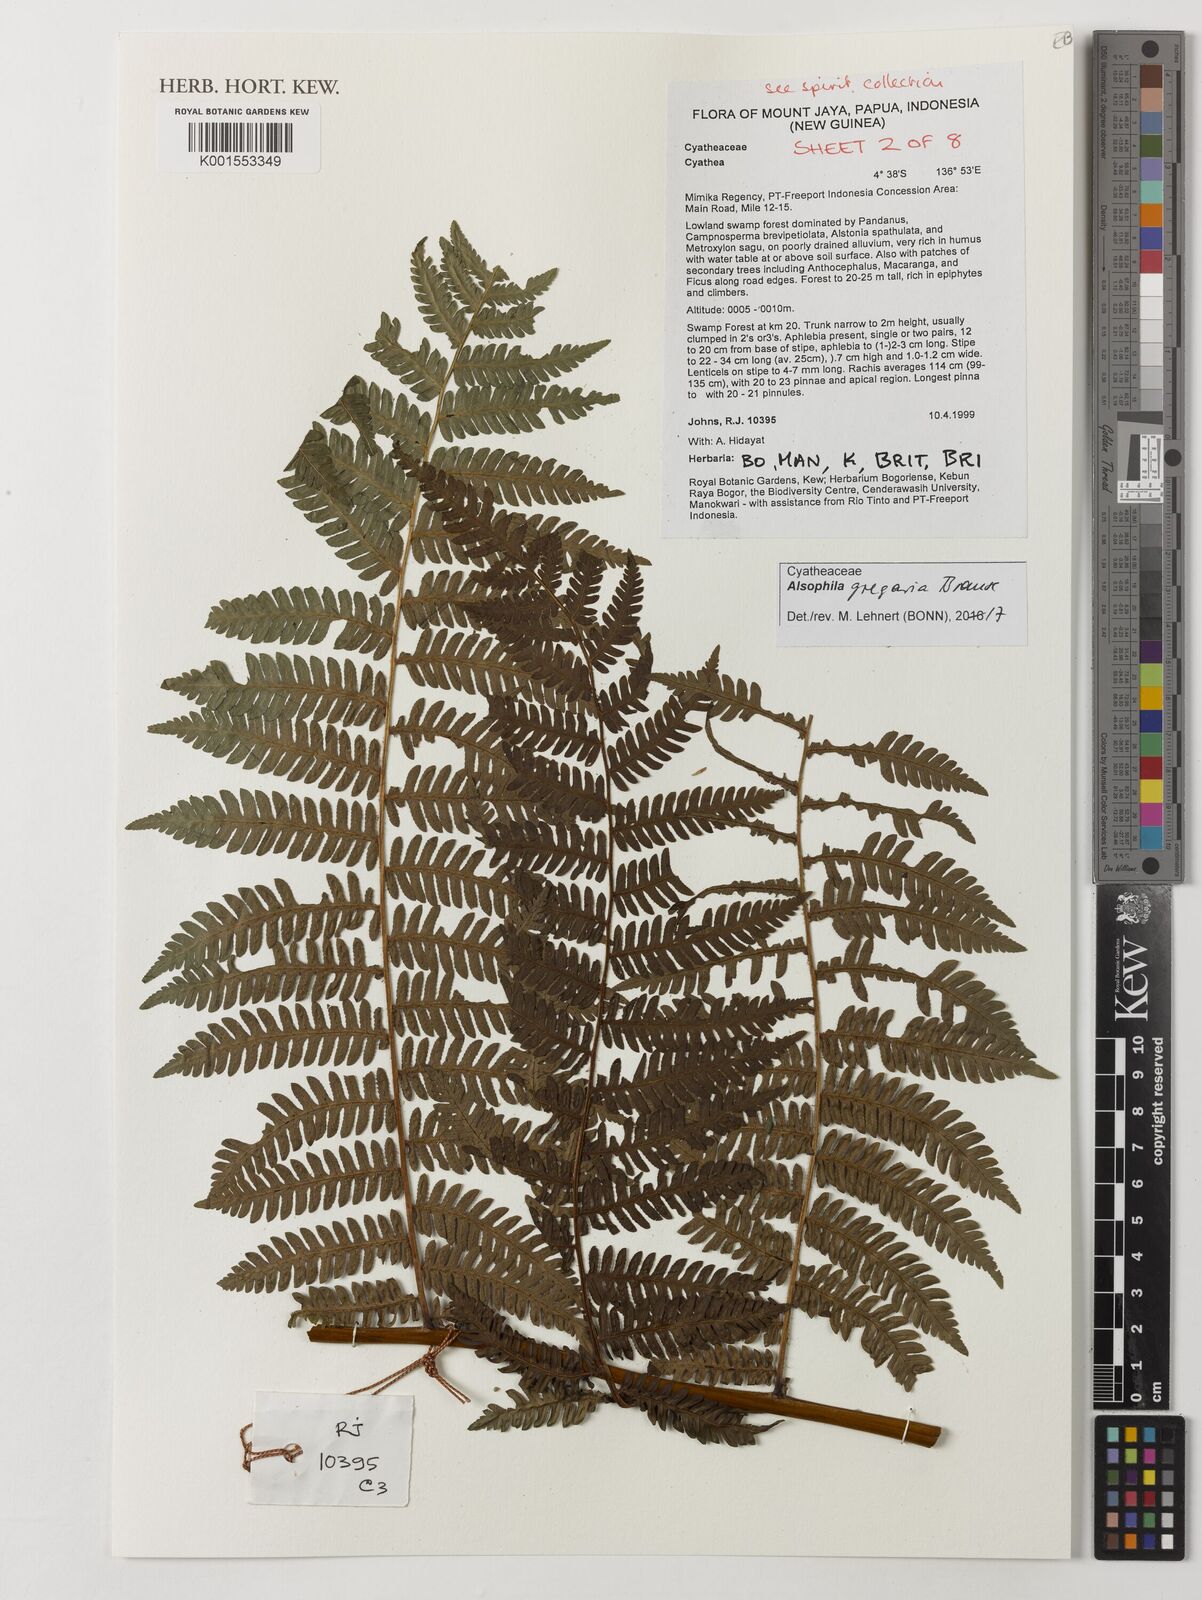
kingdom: Plantae
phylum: Tracheophyta
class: Polypodiopsida
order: Cyatheales
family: Cyatheaceae
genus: Alsophila
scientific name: Alsophila gregaria
